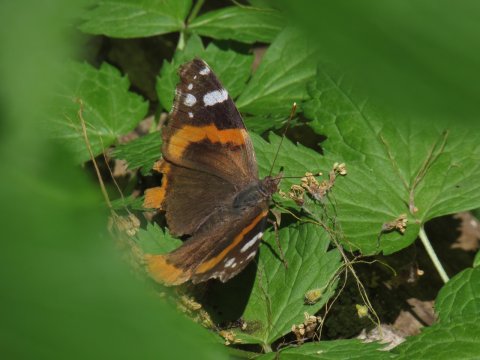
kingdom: Animalia
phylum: Arthropoda
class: Insecta
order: Lepidoptera
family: Nymphalidae
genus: Vanessa
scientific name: Vanessa atalanta
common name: Red Admiral
